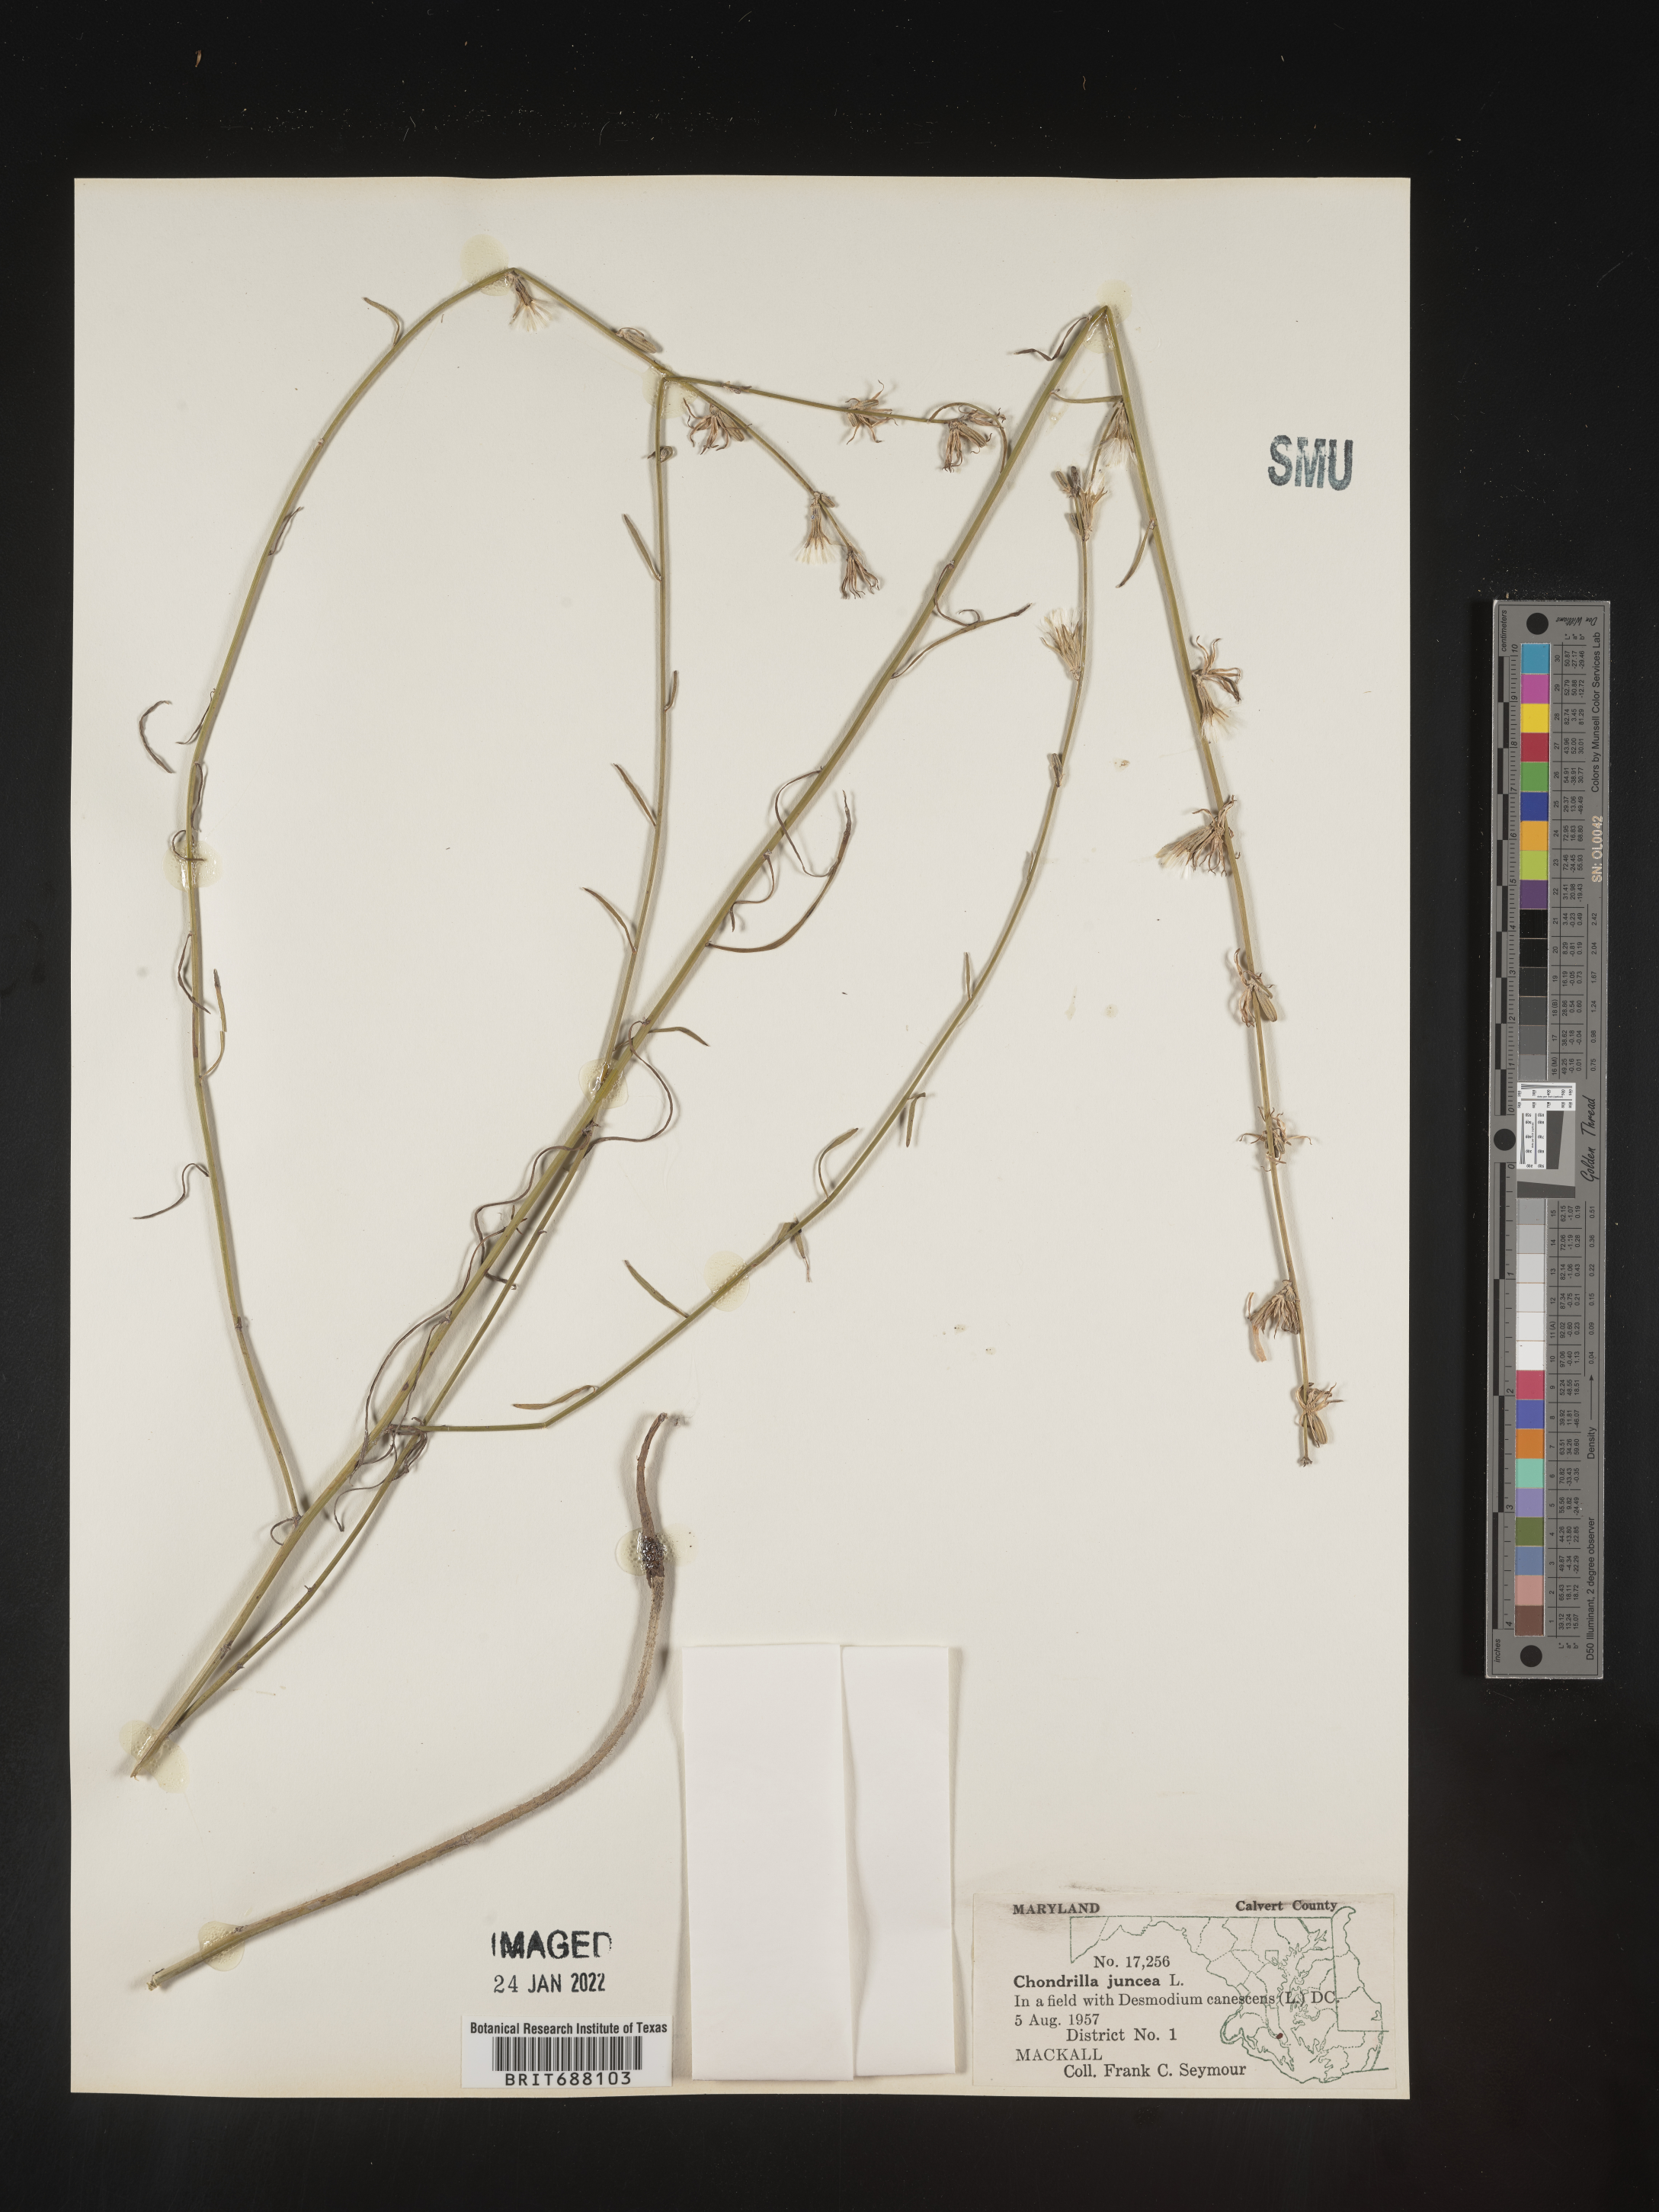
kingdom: Plantae
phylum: Tracheophyta
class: Magnoliopsida
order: Asterales
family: Asteraceae
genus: Chondrilla
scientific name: Chondrilla
